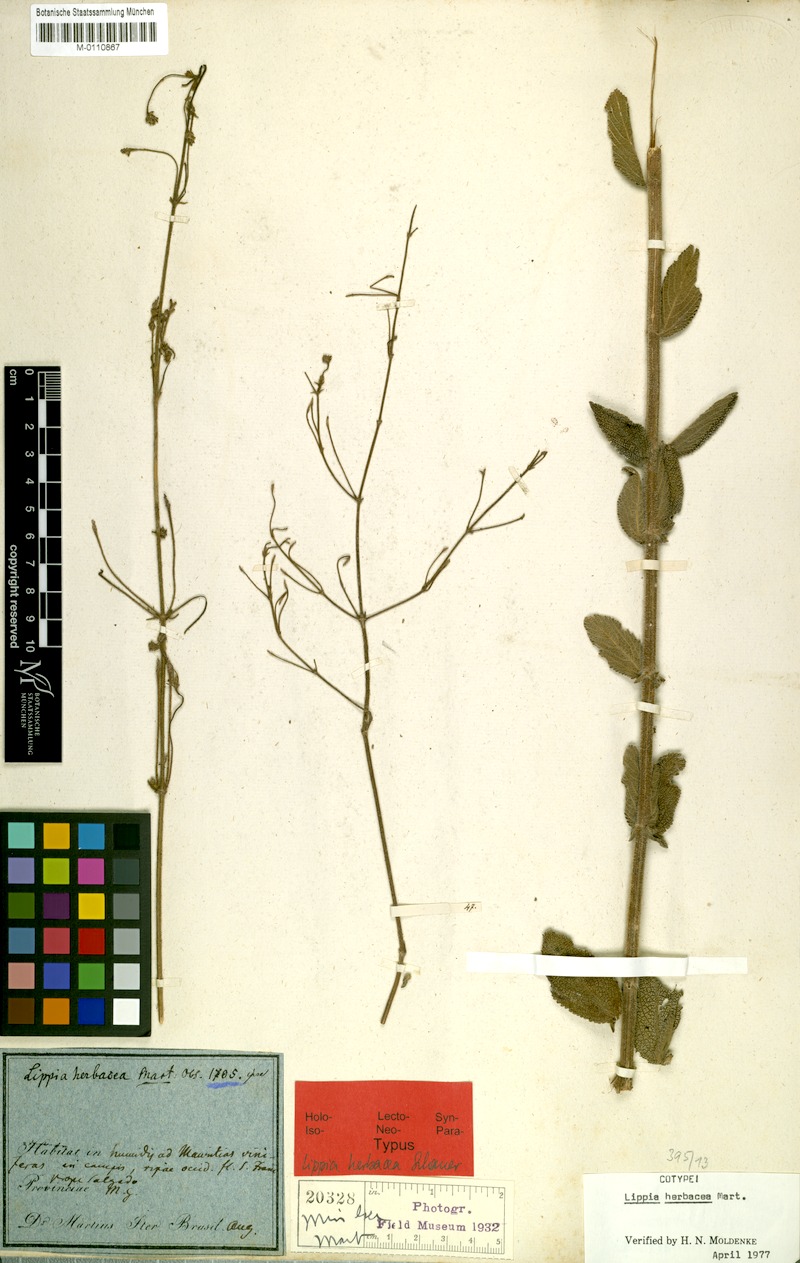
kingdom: Plantae
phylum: Tracheophyta
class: Magnoliopsida
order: Lamiales
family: Verbenaceae
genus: Lippia
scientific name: Lippia herbacea
